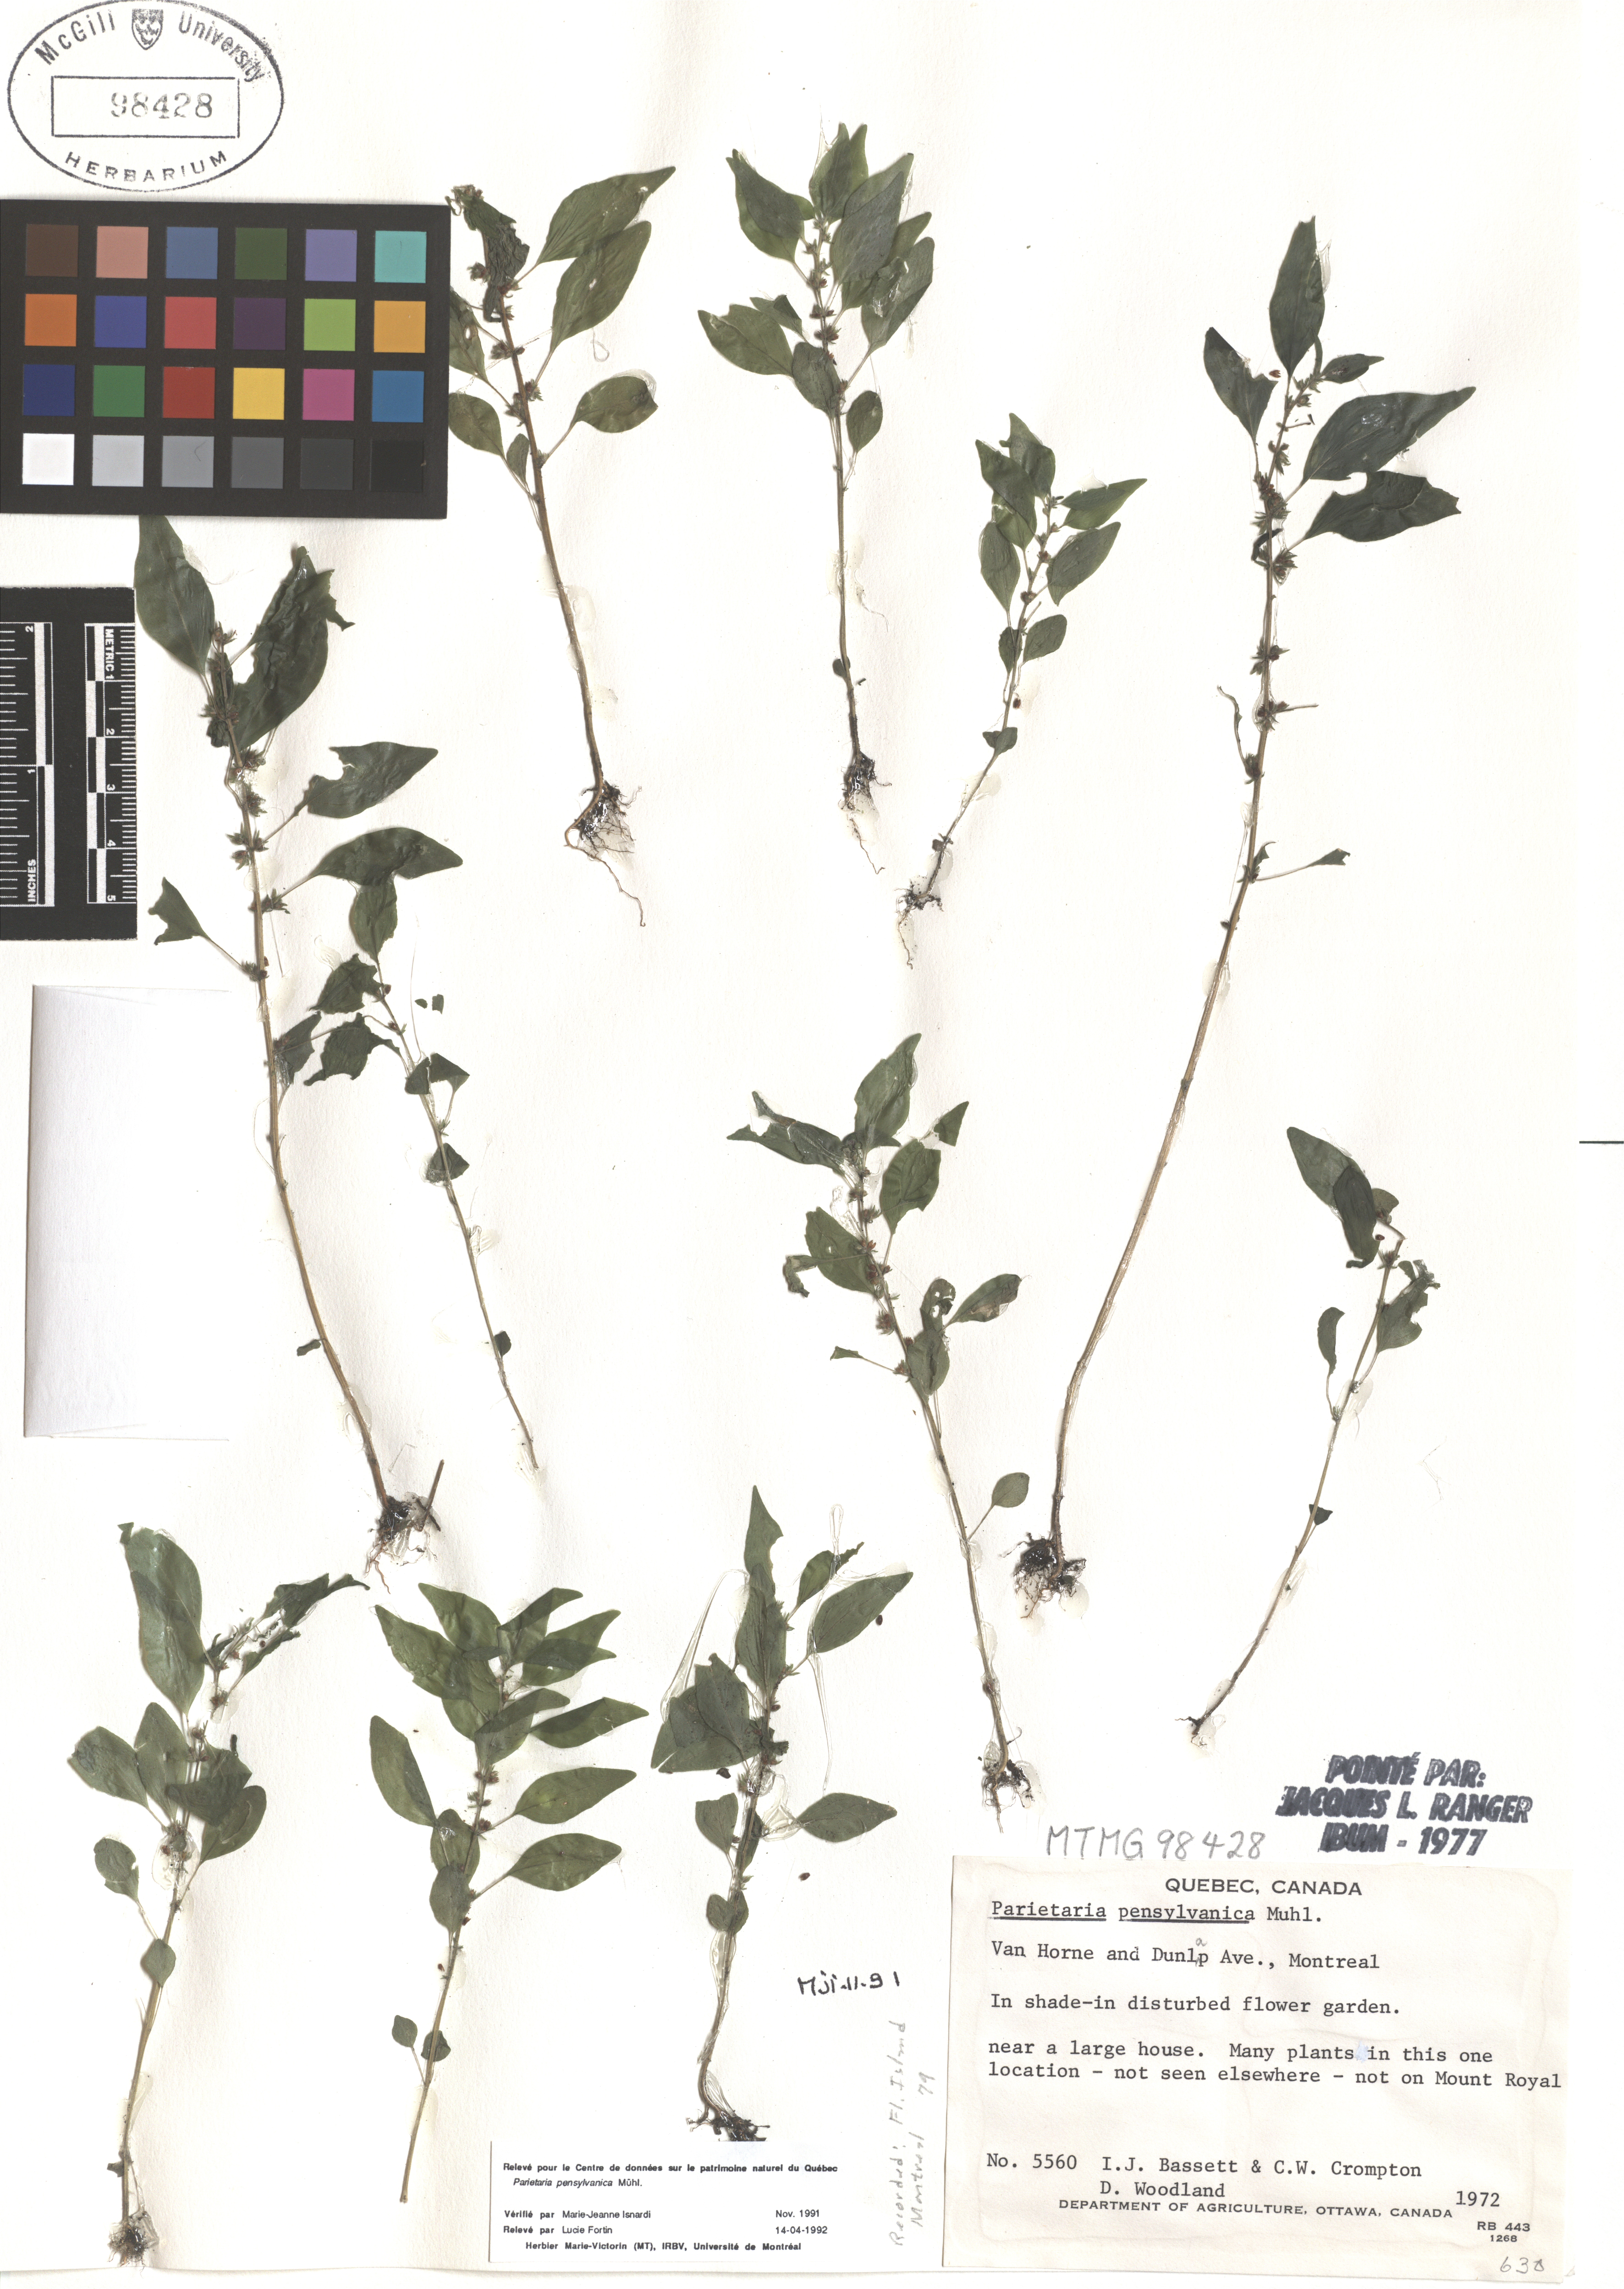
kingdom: Plantae
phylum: Tracheophyta
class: Magnoliopsida
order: Rosales
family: Urticaceae
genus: Parietaria
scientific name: Parietaria pensylvanica
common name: Pennsylvania pellitory
